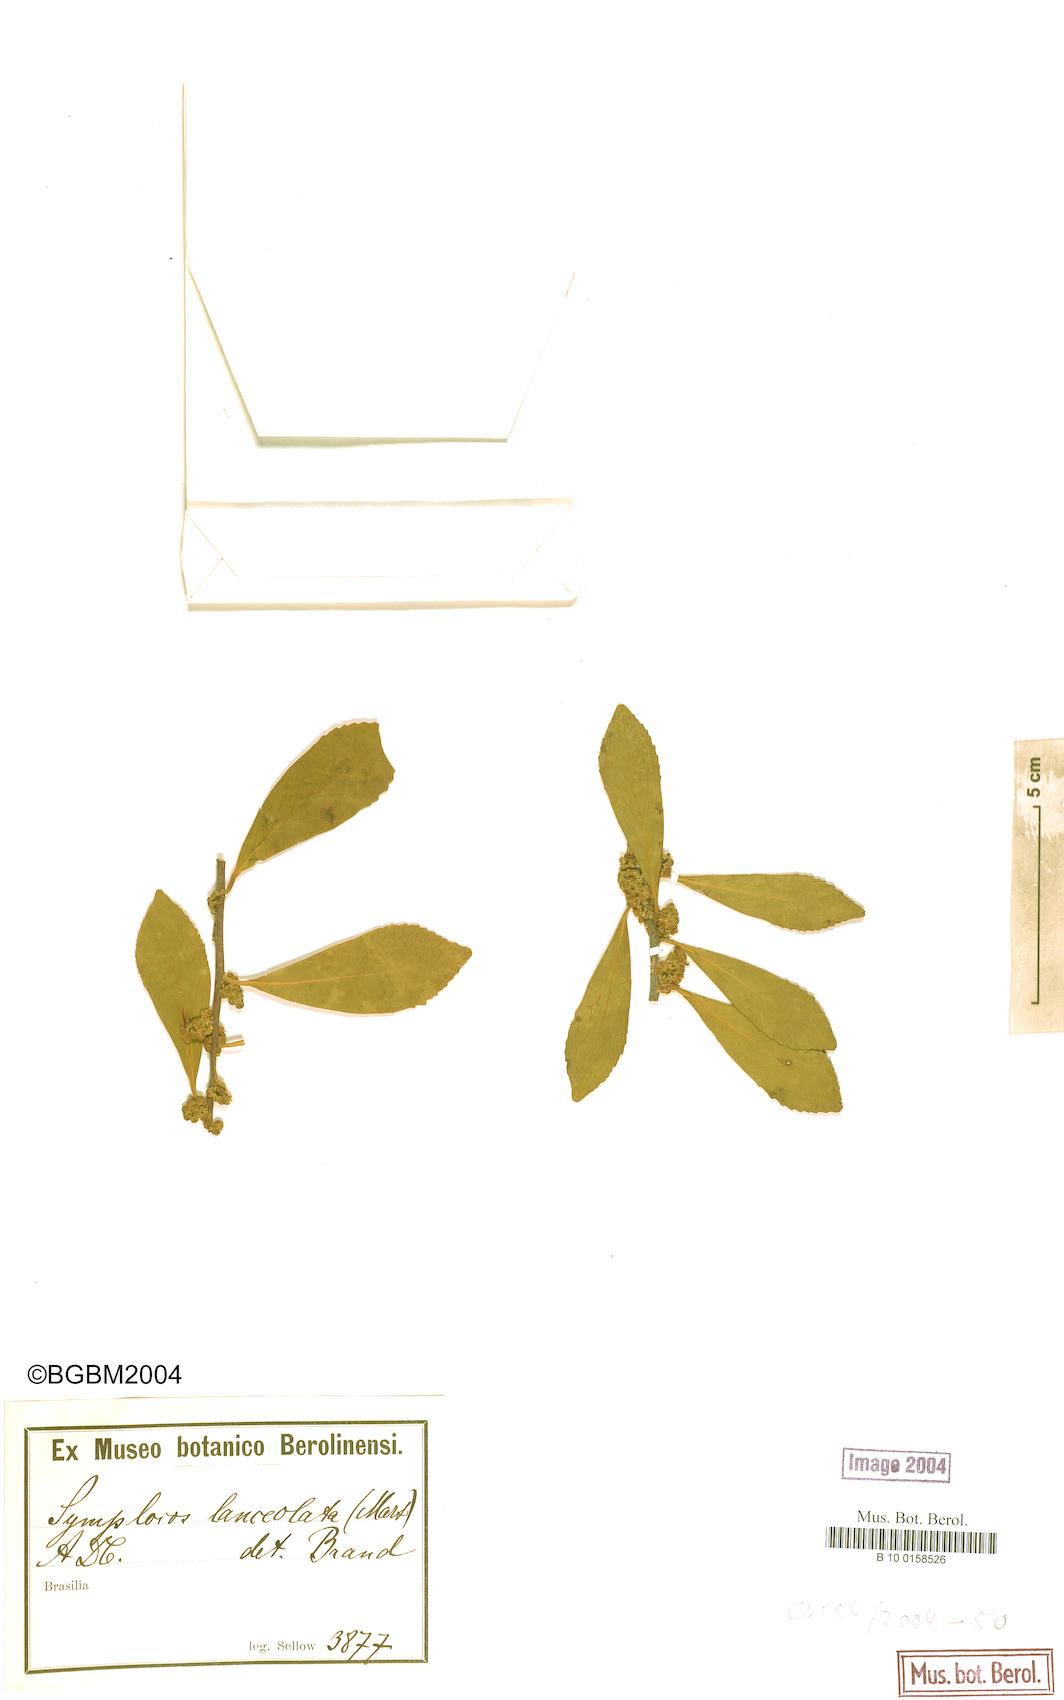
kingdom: Plantae
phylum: Tracheophyta
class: Magnoliopsida
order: Ericales
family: Symplocaceae
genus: Symplocos
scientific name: Symplocos oblongifolia
